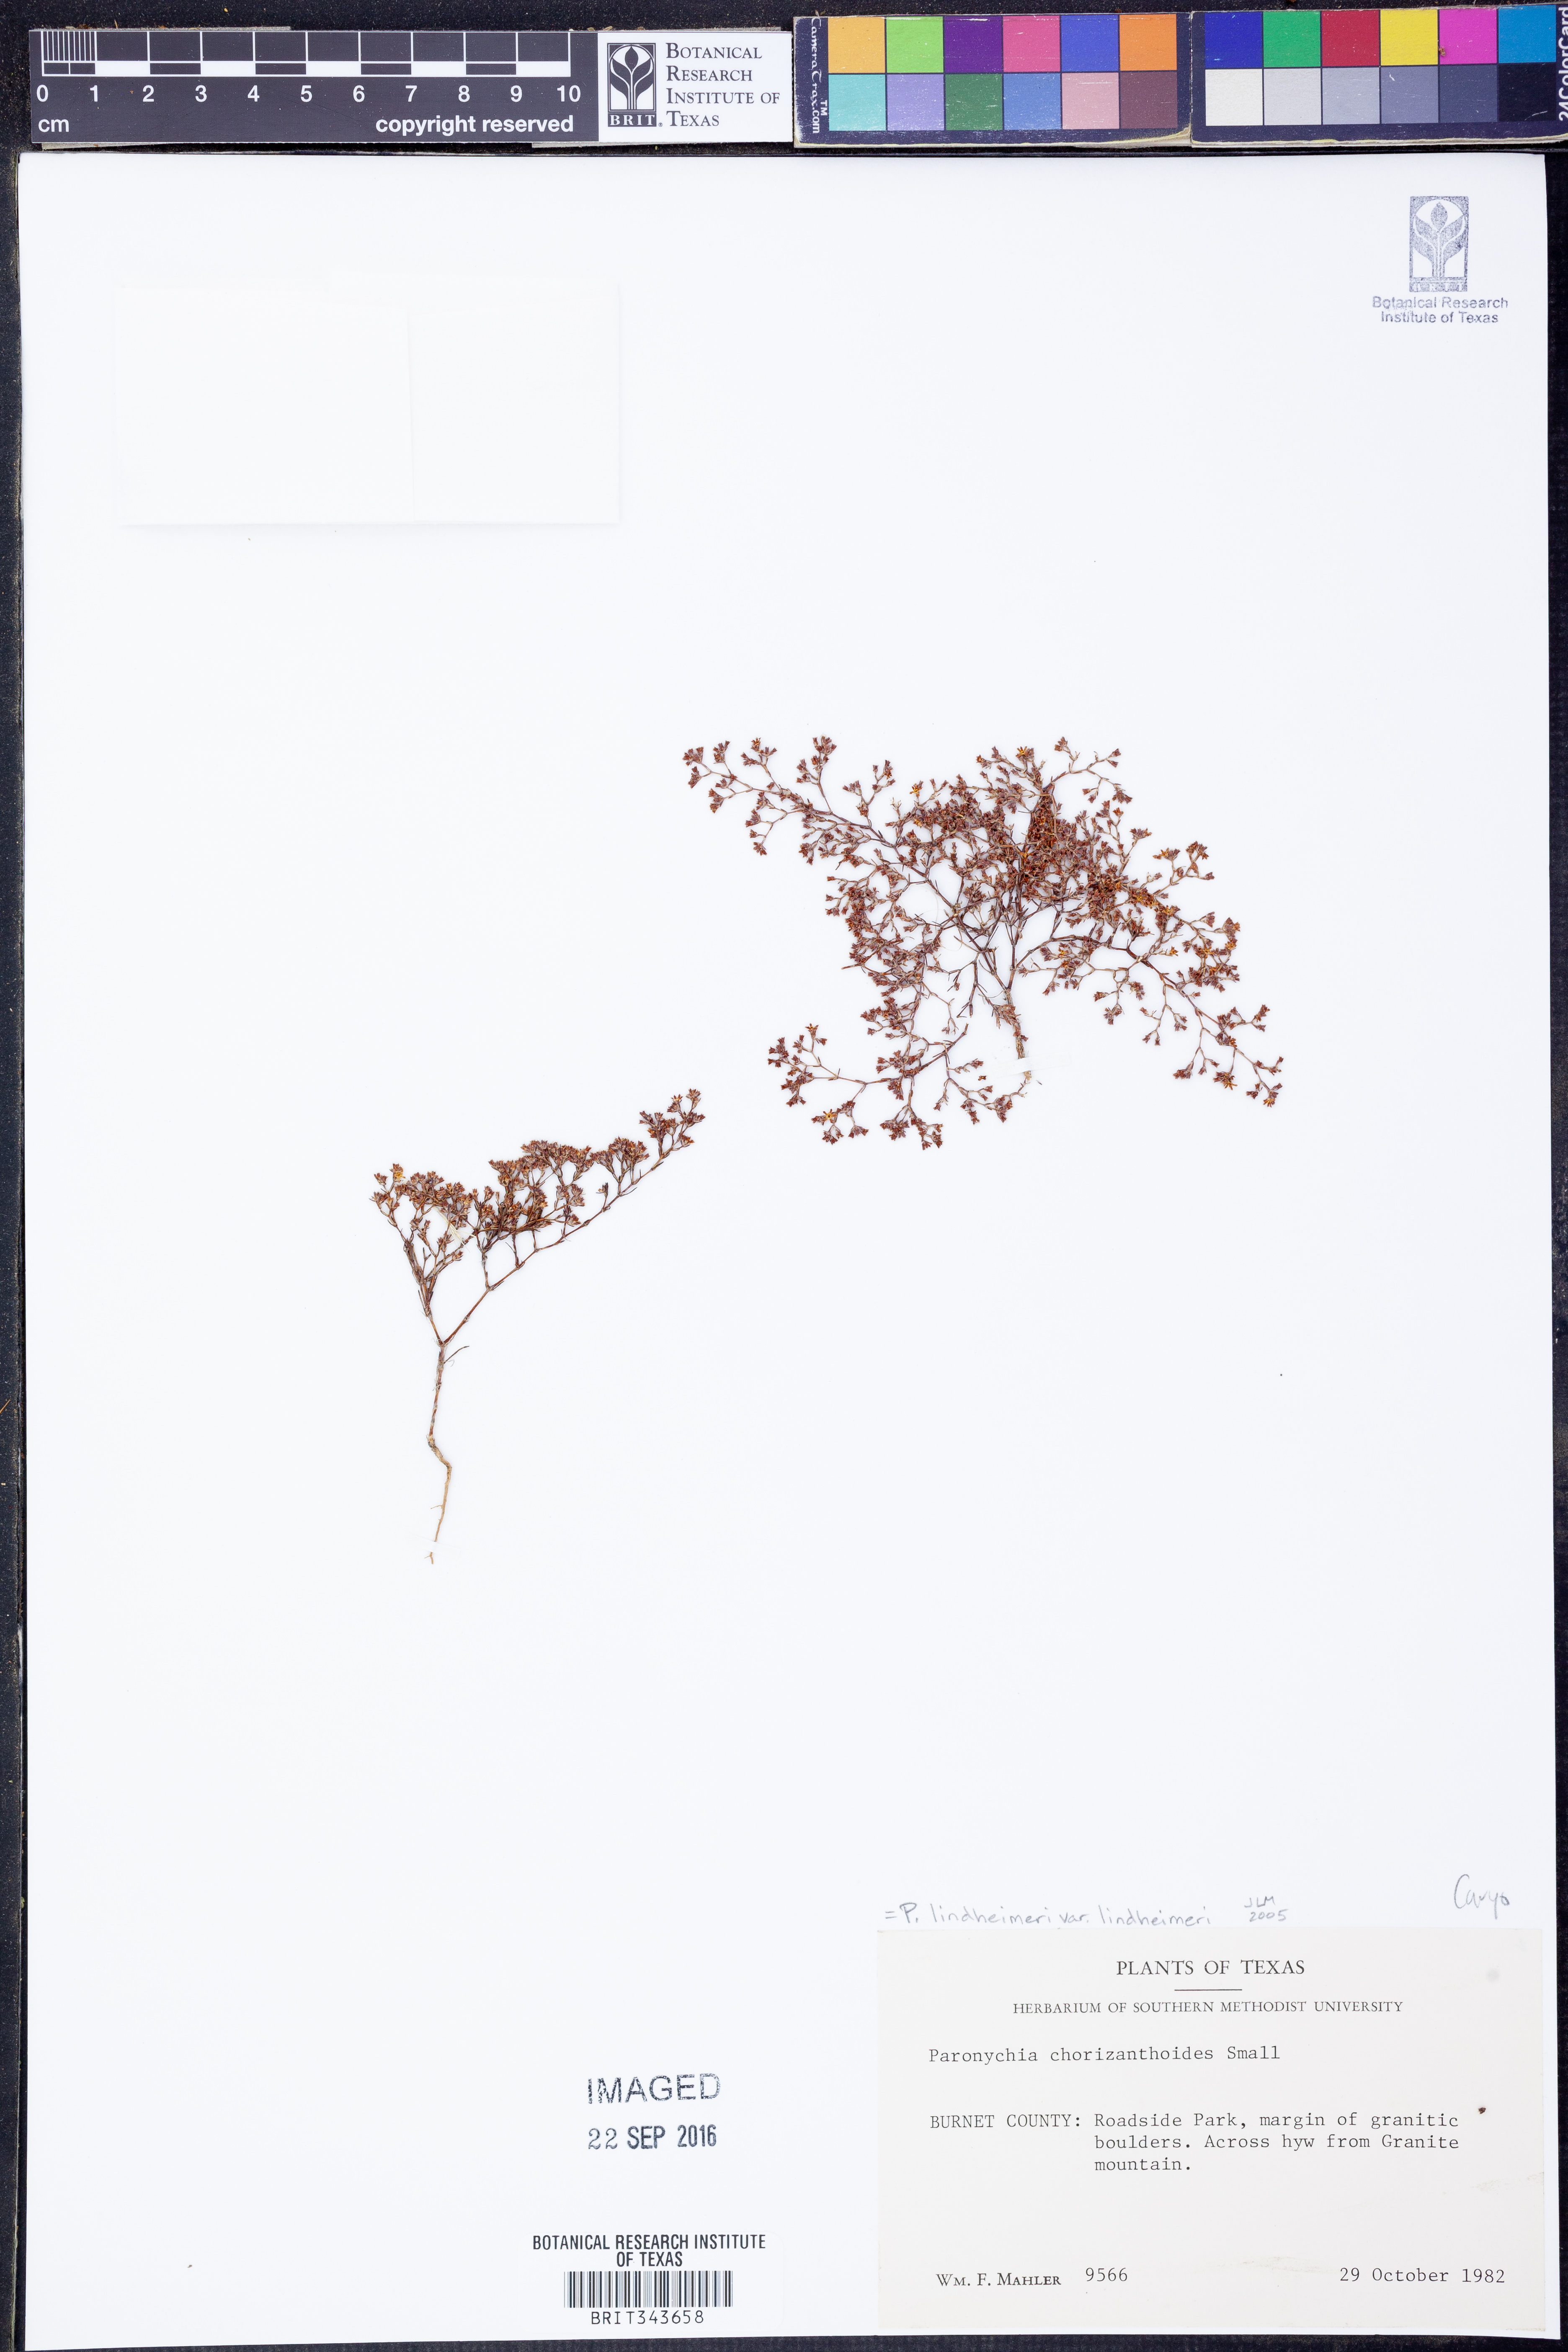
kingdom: Plantae
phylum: Tracheophyta
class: Magnoliopsida
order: Caryophyllales
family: Caryophyllaceae
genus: Paronychia
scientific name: Paronychia lindheimeri
